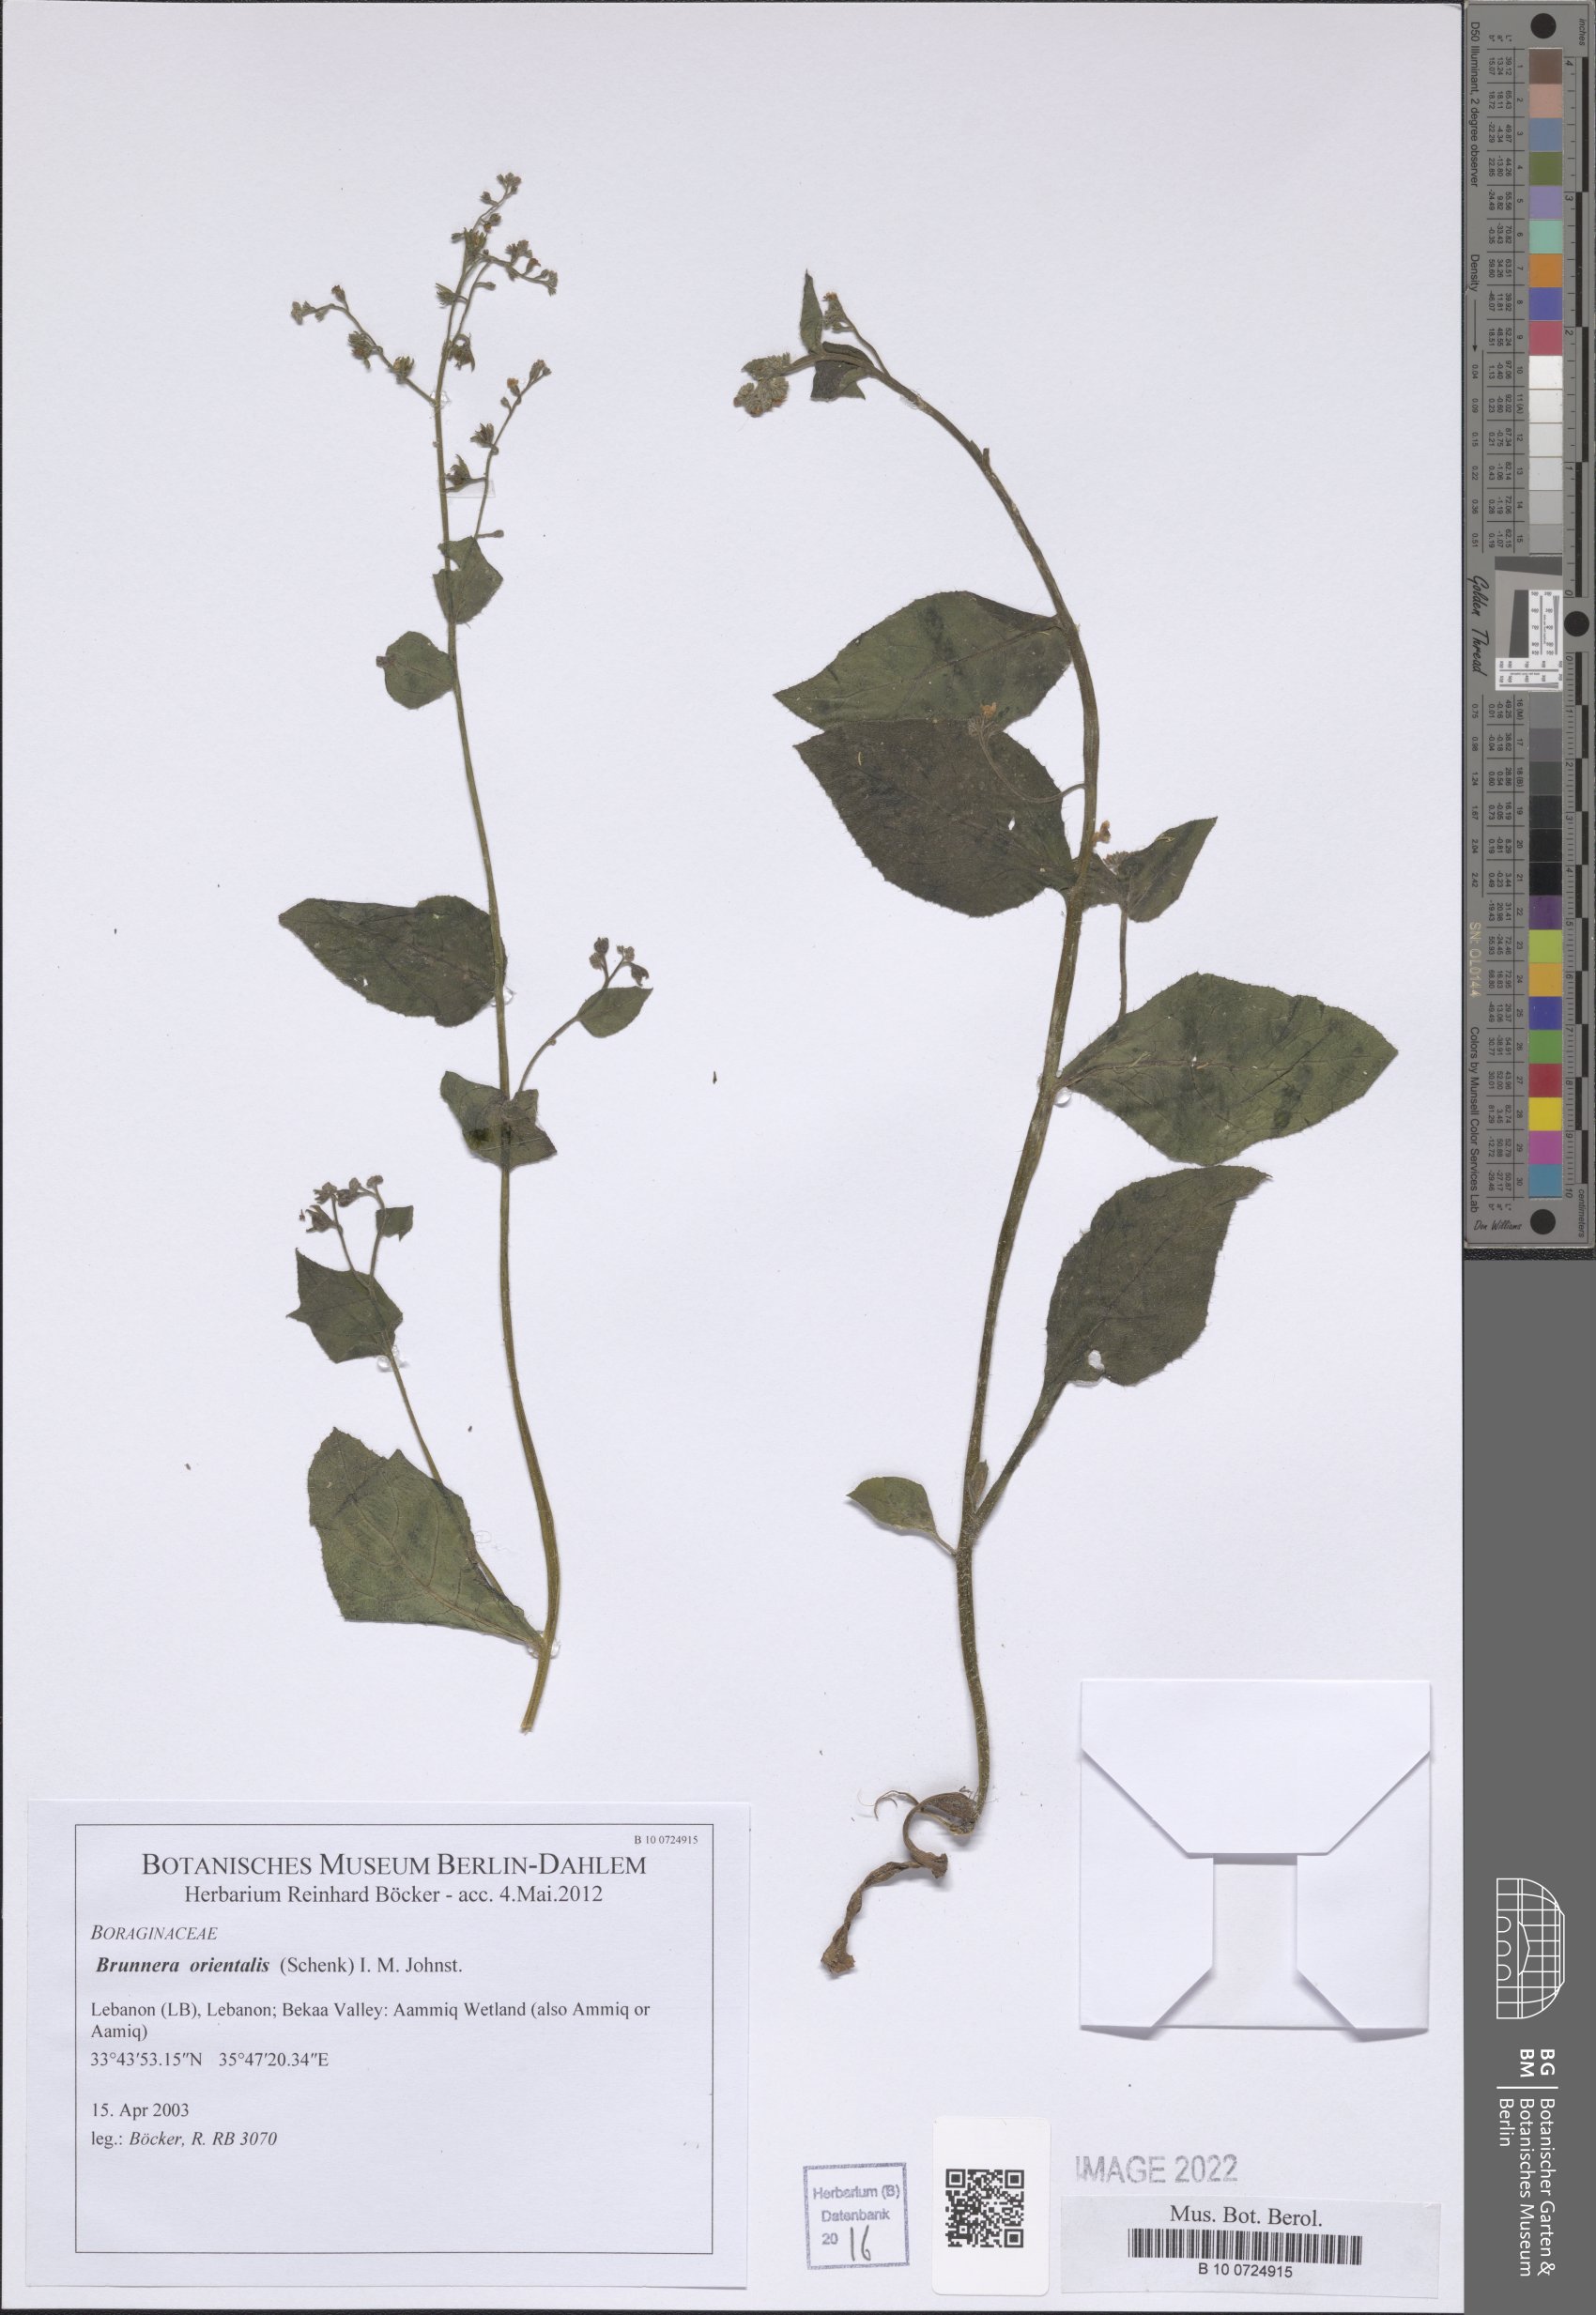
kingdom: Plantae
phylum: Tracheophyta
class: Magnoliopsida
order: Boraginales
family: Boraginaceae
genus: Brunnera
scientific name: Brunnera orientalis
